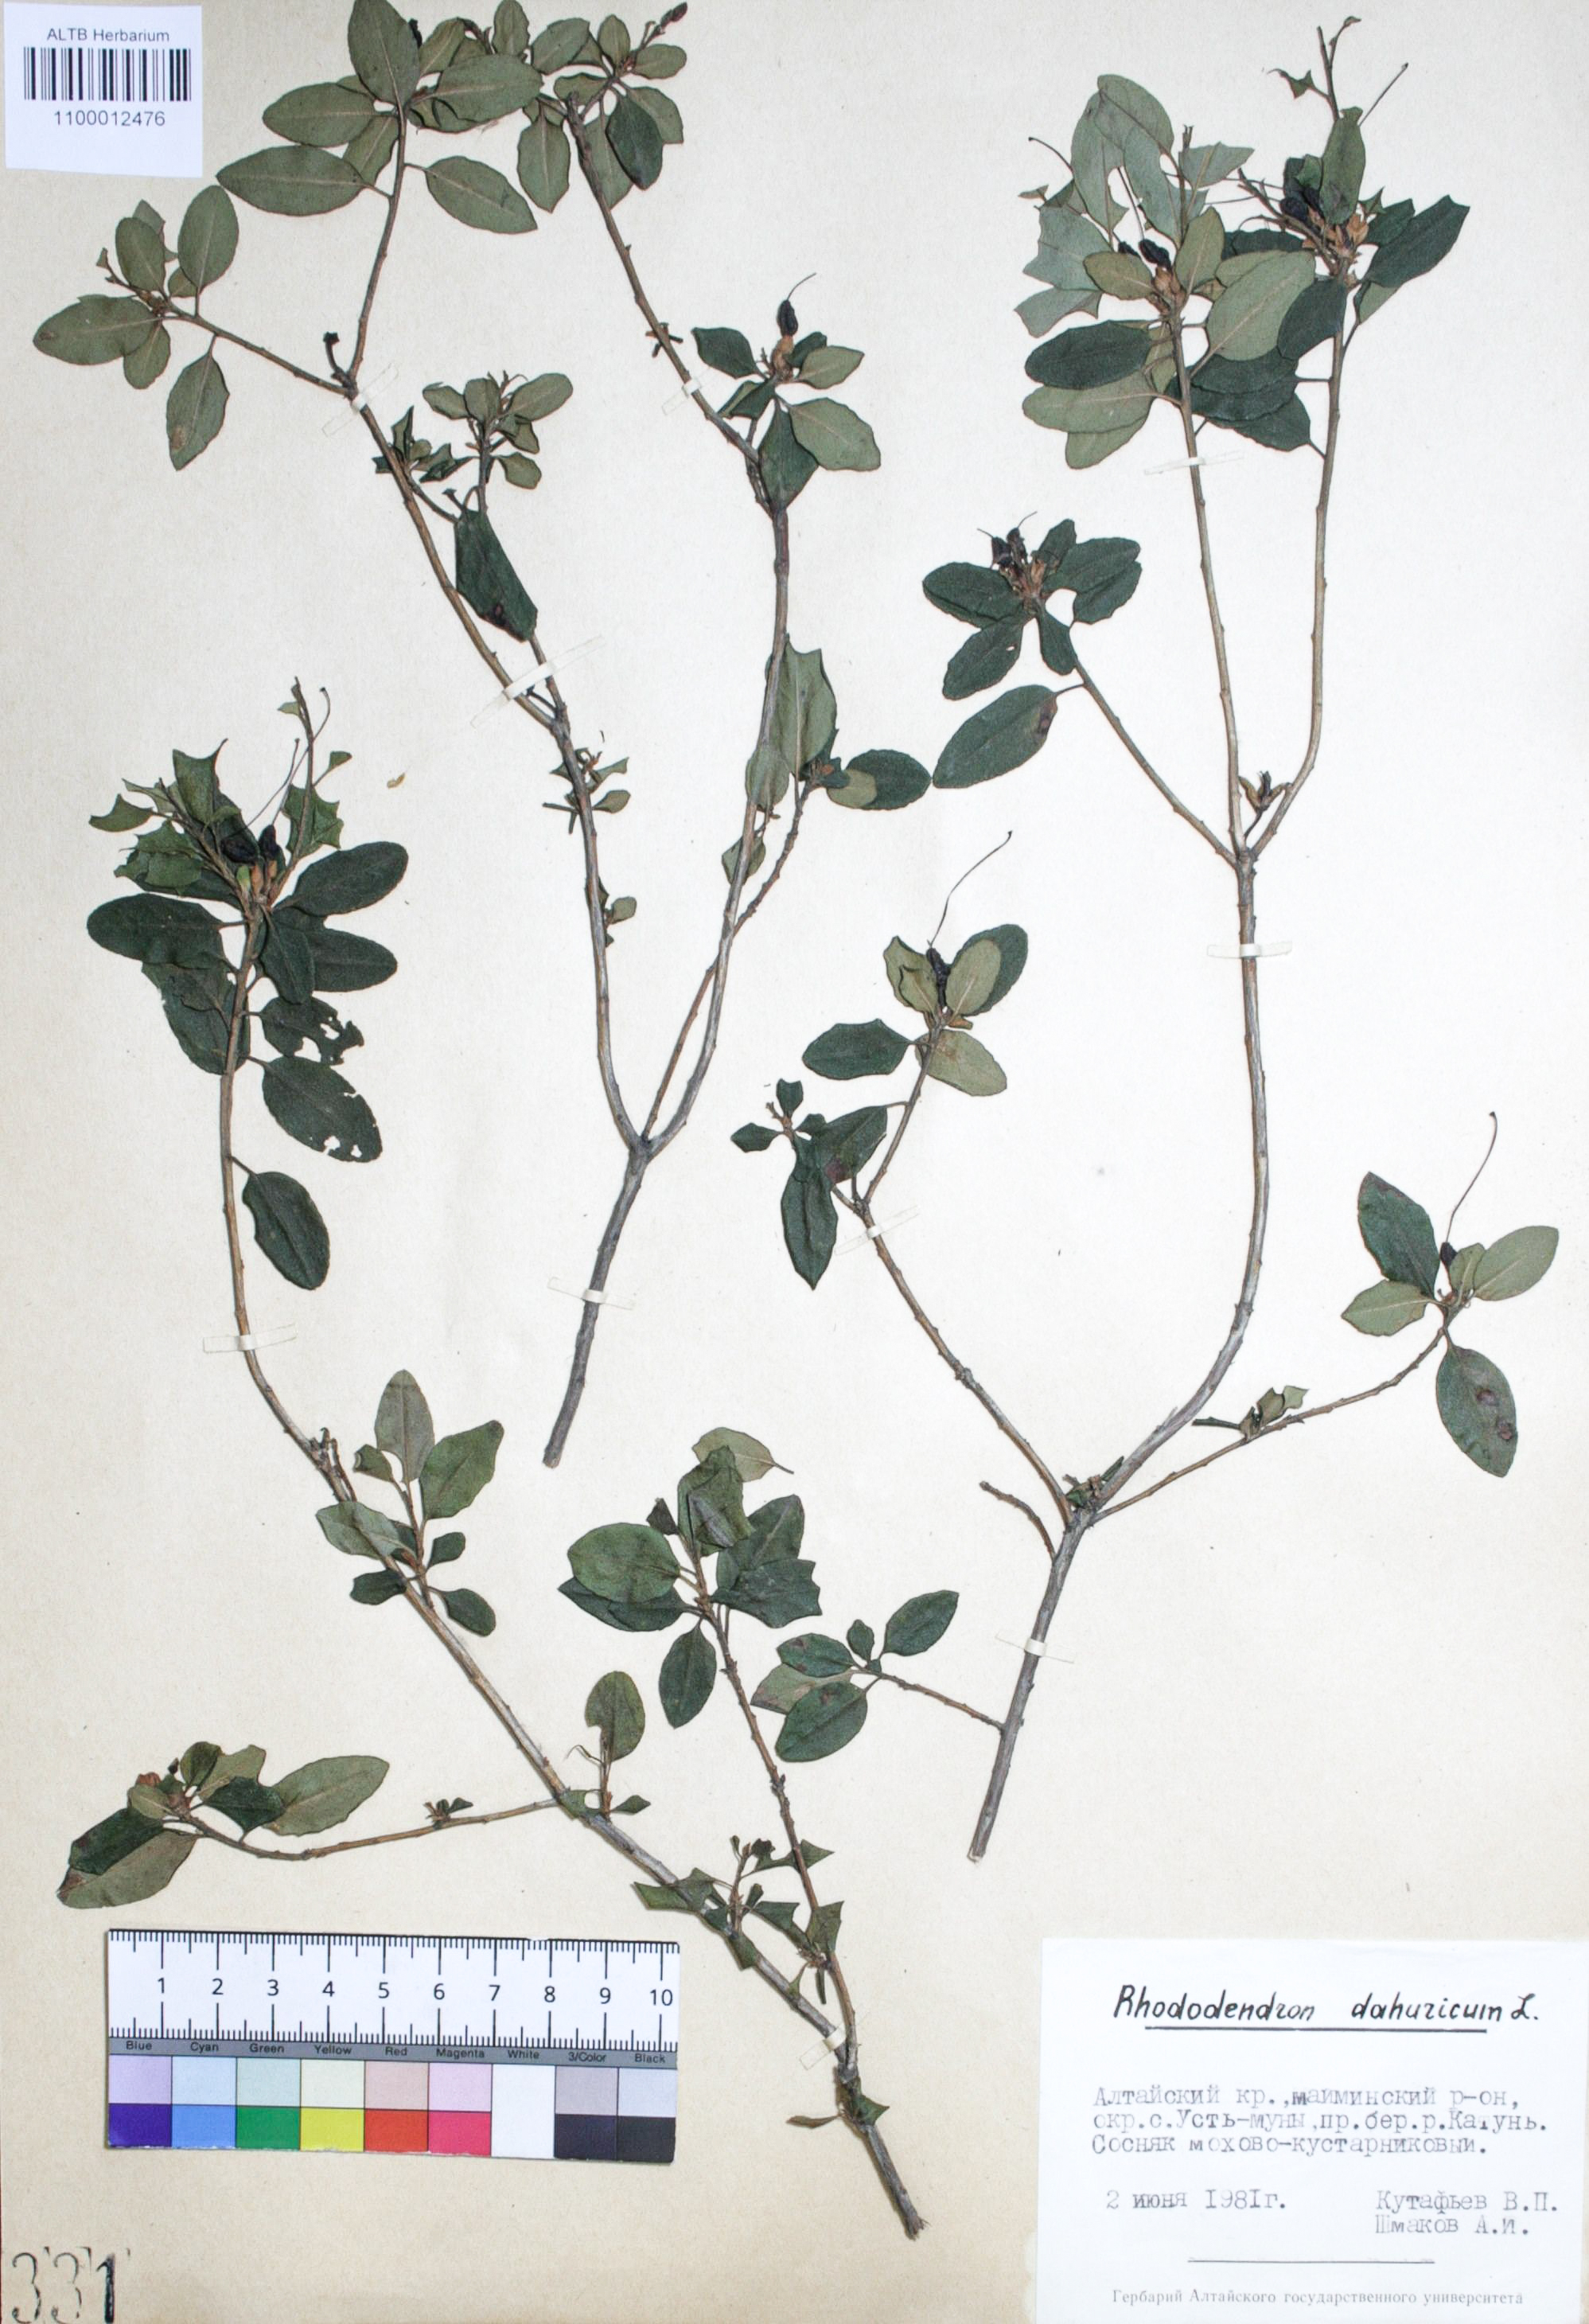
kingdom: Plantae
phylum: Tracheophyta
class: Magnoliopsida
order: Ericales
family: Ericaceae
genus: Rhododendron
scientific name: Rhododendron dahuricum
